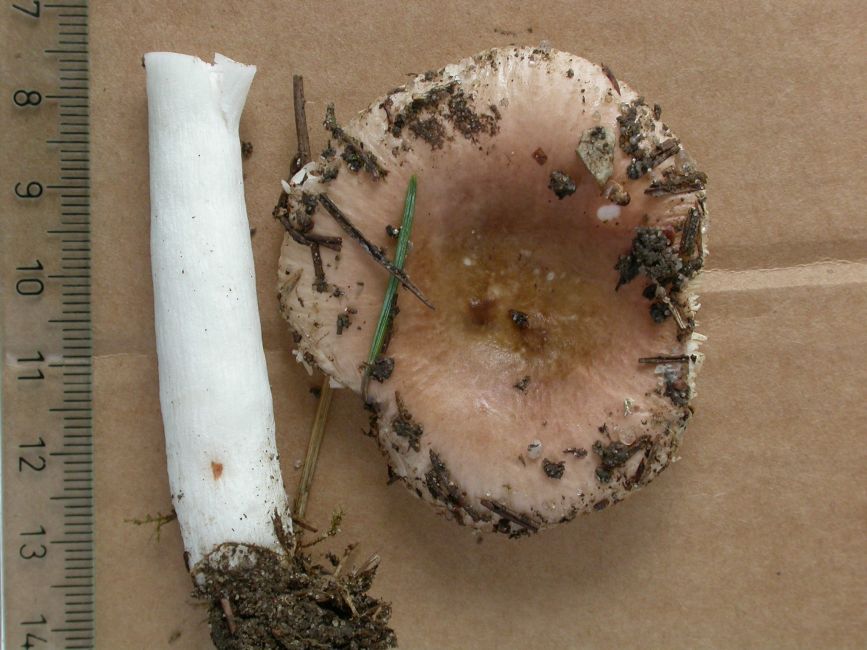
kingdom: Fungi
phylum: Basidiomycota
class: Agaricomycetes
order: Russulales
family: Russulaceae
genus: Russula
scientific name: Russula nauseosa
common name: spinkel skørhat
